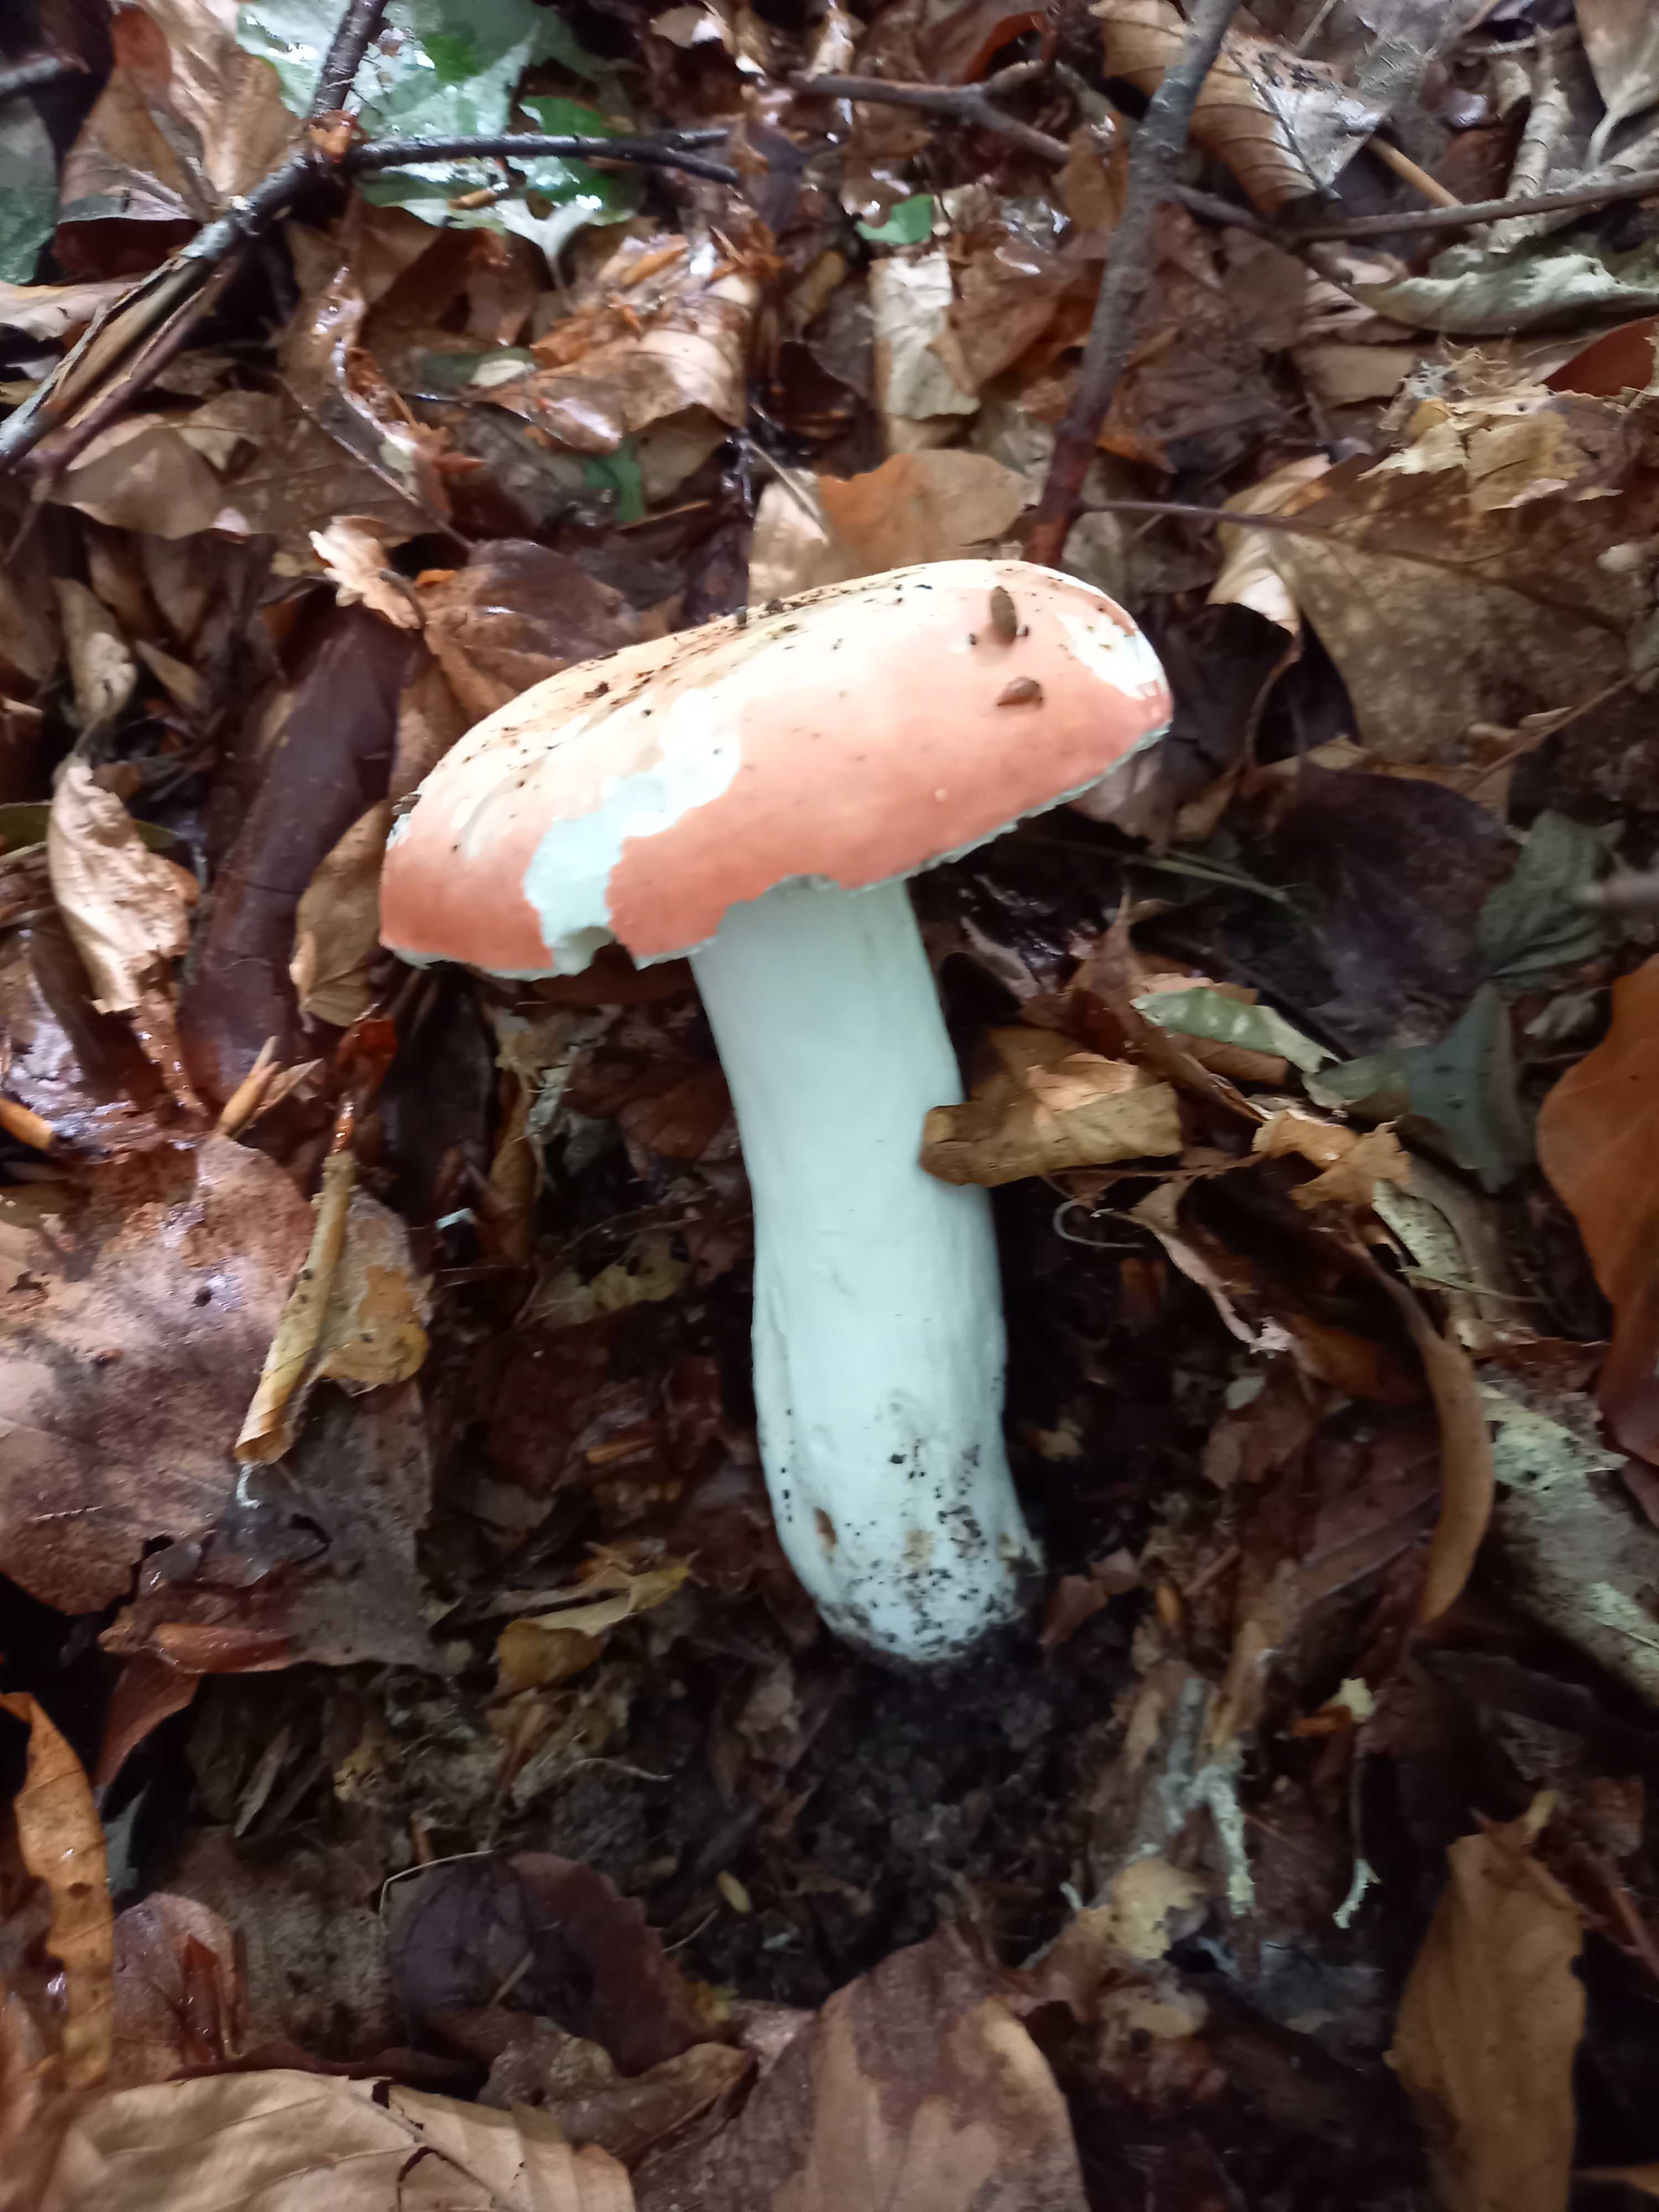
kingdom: Fungi
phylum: Basidiomycota
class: Agaricomycetes
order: Russulales
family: Russulaceae
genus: Russula
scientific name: Russula rosea
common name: fastkødet skørhat
